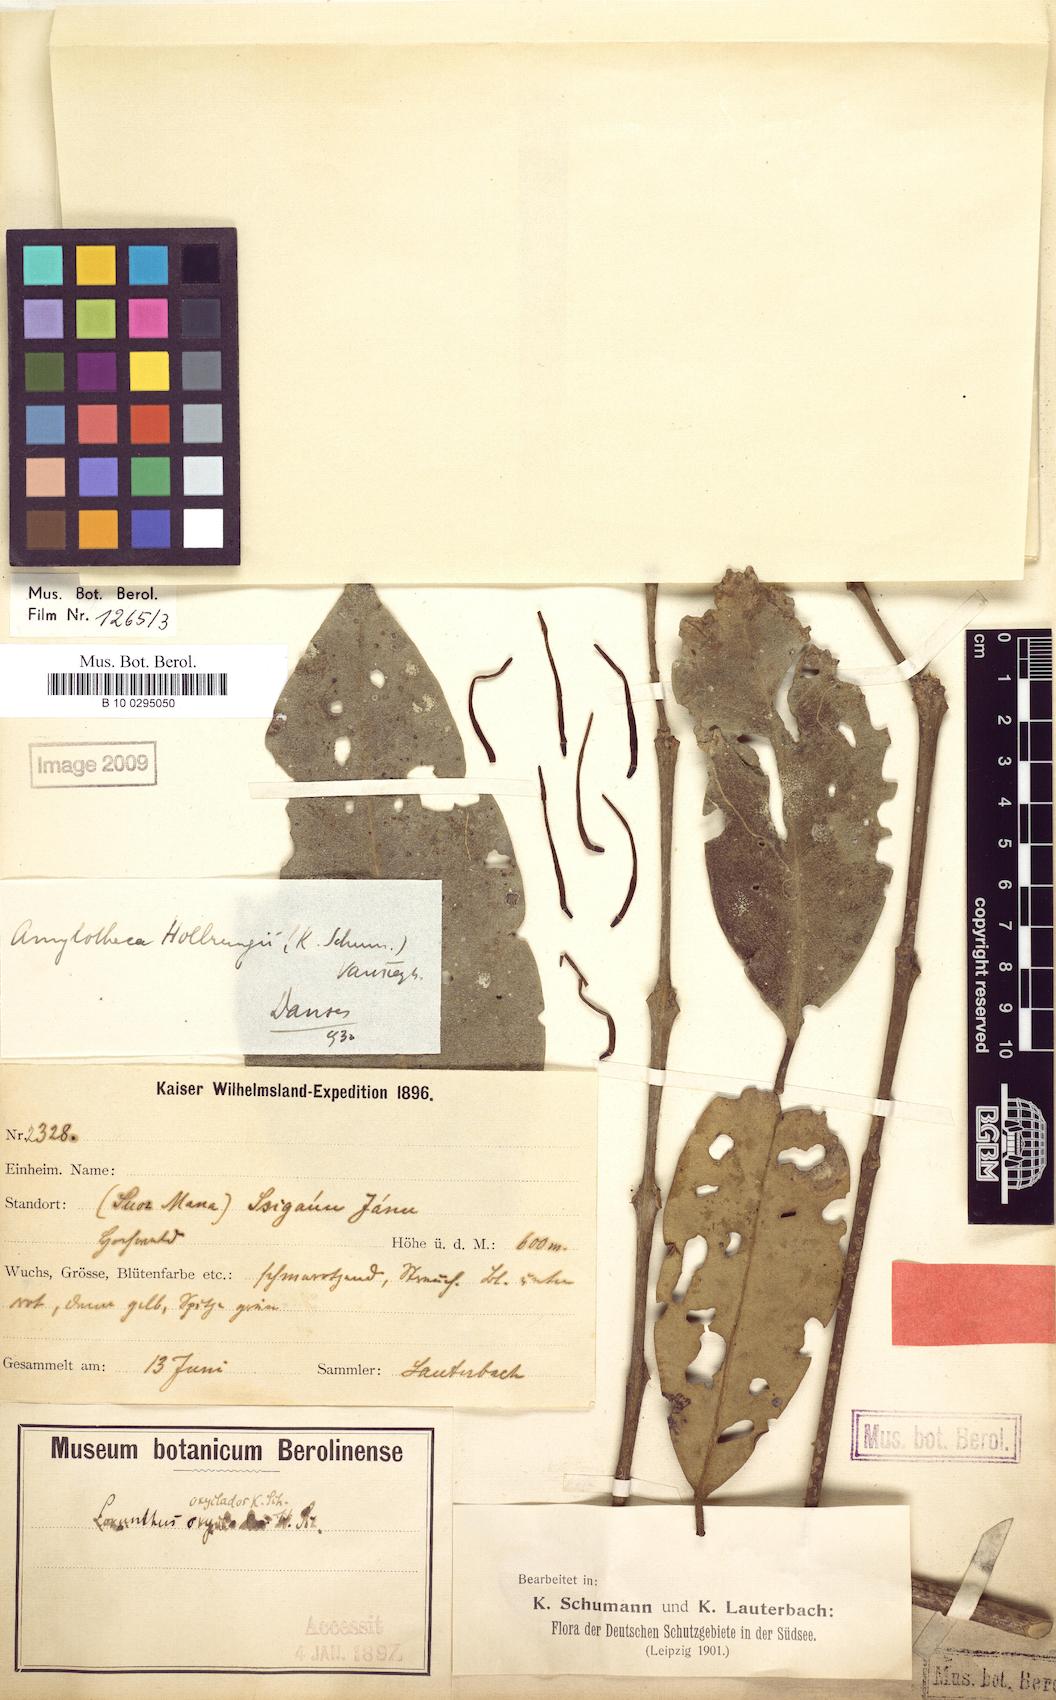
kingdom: Plantae
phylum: Tracheophyta
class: Magnoliopsida
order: Santalales
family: Loranthaceae
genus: Decaisnina
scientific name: Decaisnina hollrungii
